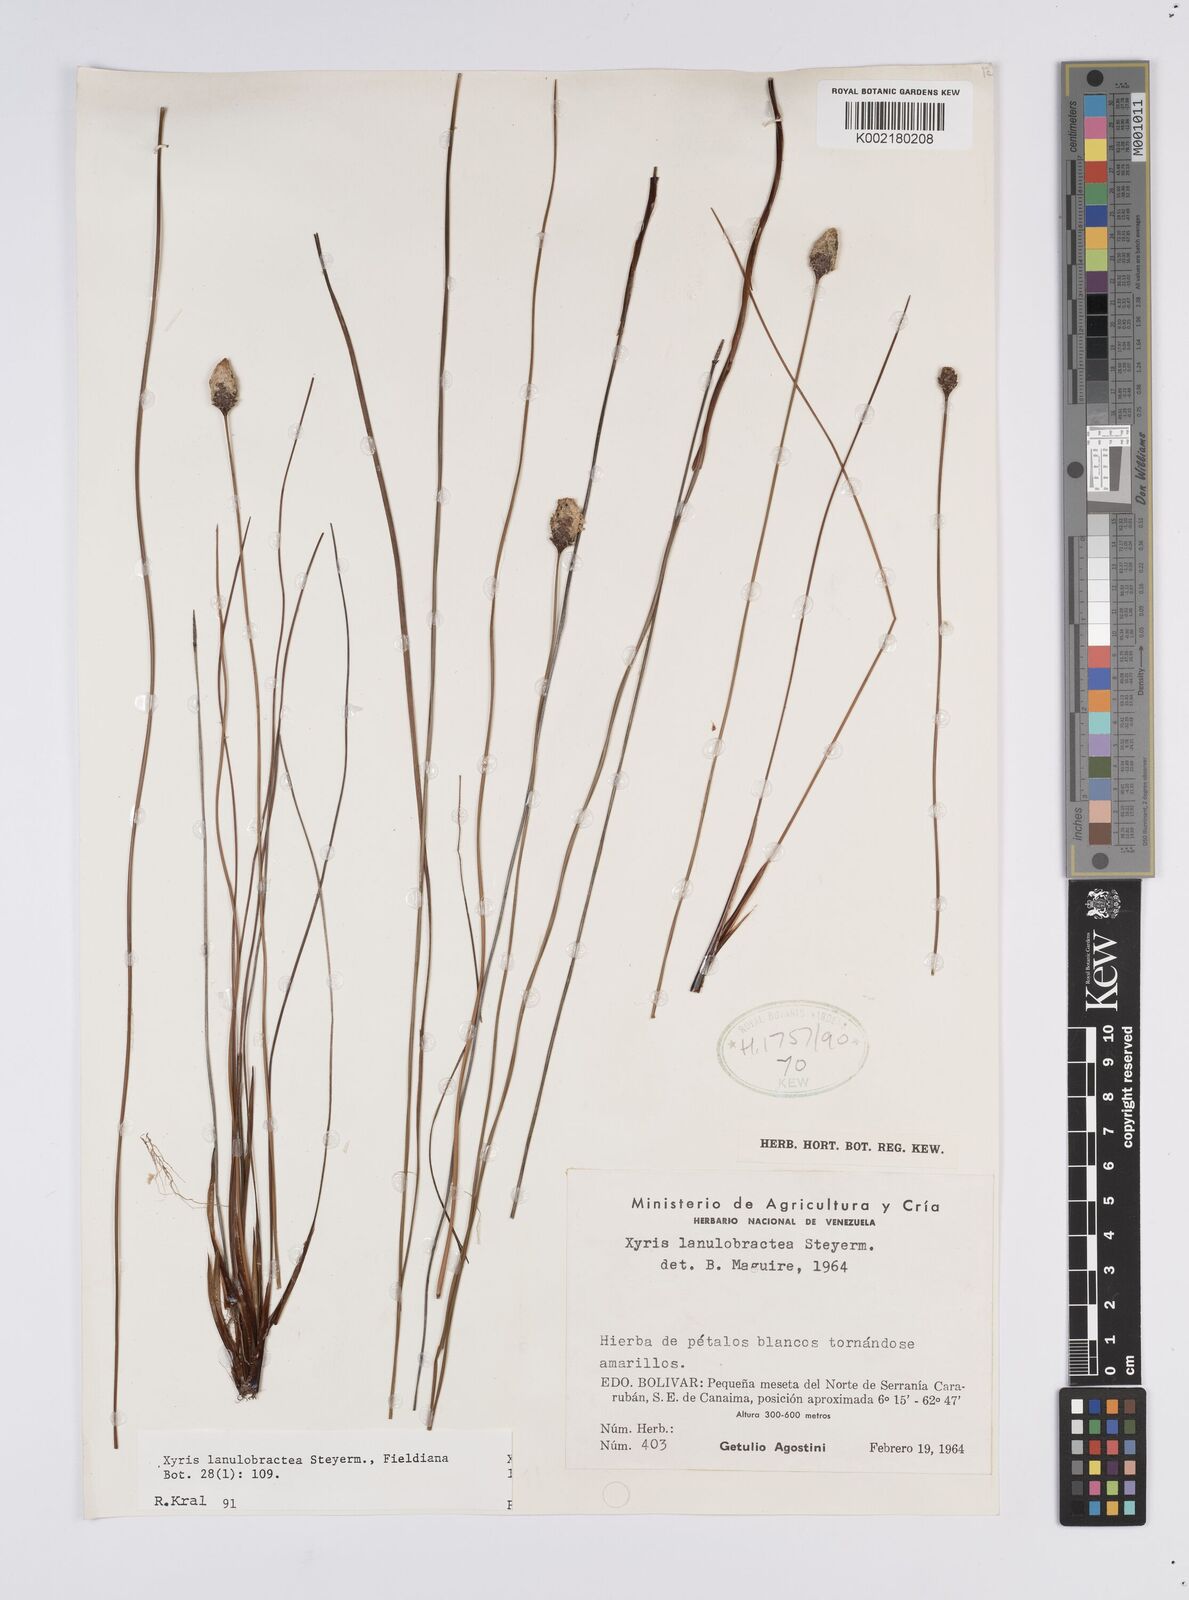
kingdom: Plantae
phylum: Tracheophyta
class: Liliopsida
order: Poales
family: Xyridaceae
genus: Xyris
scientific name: Xyris lanulobractea
